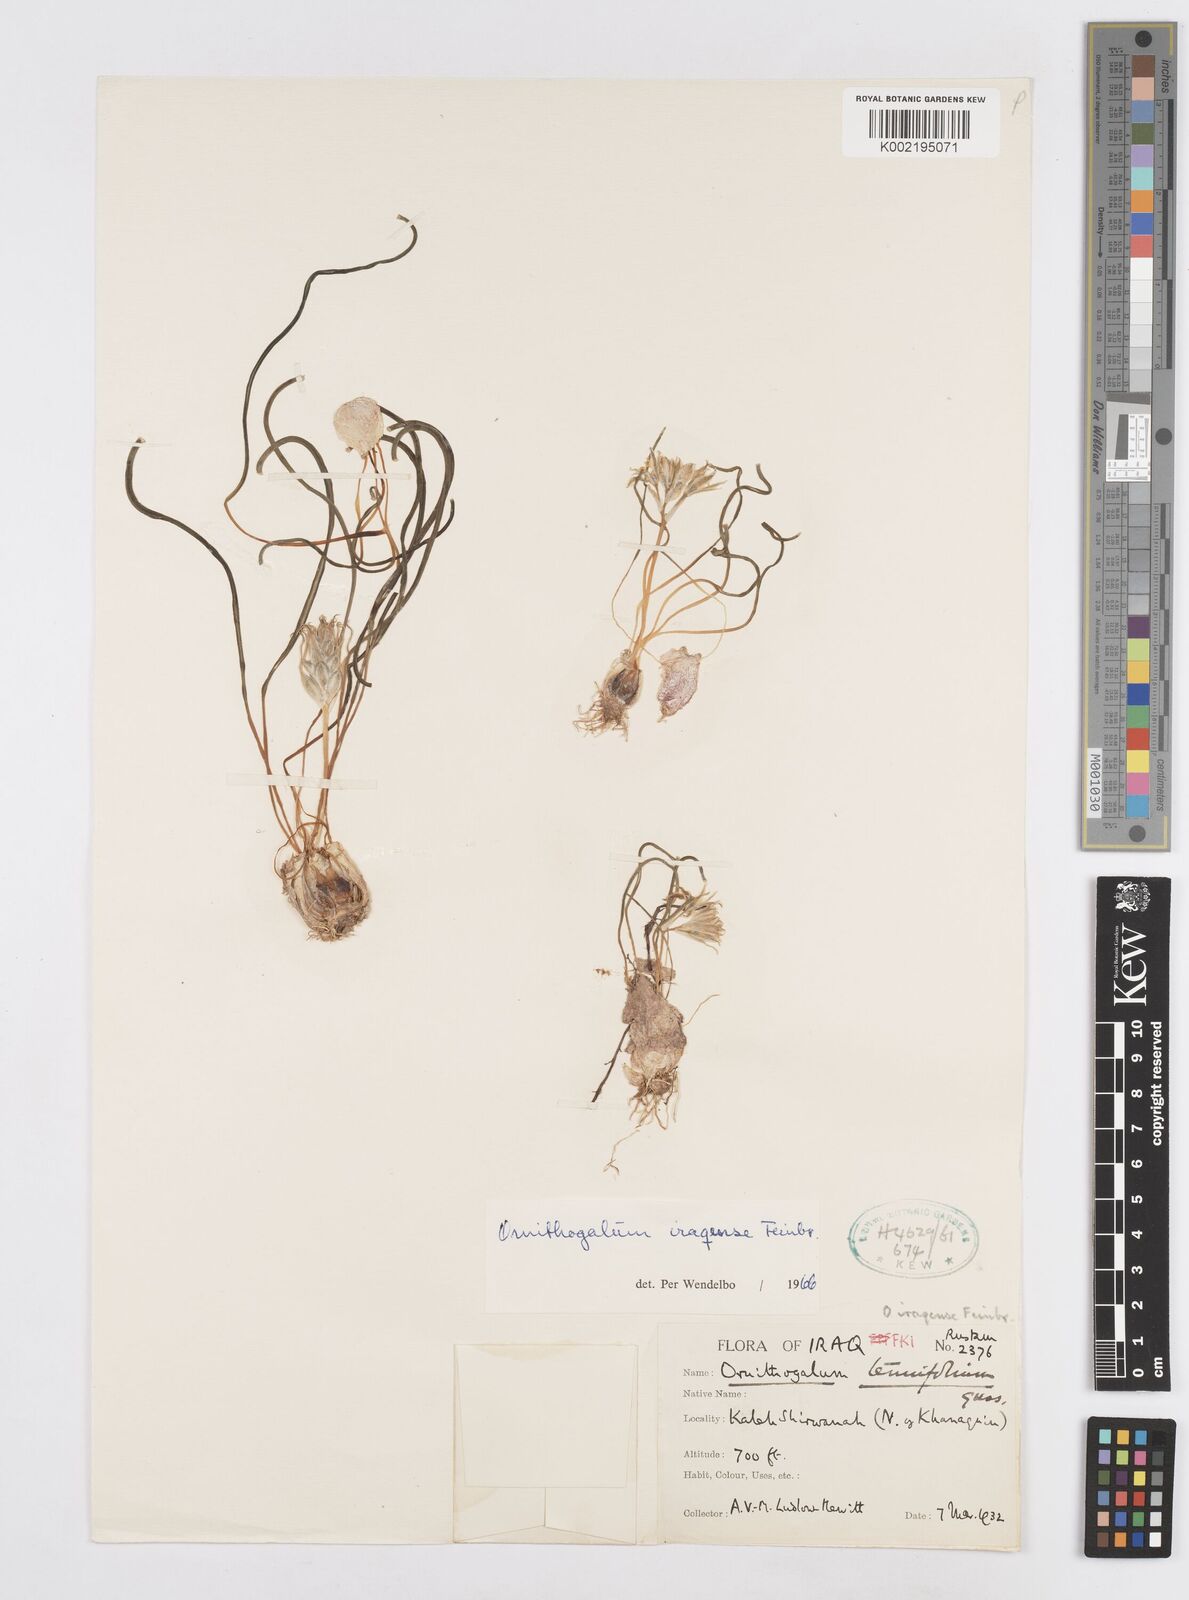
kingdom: Plantae
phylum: Tracheophyta
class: Liliopsida
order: Asparagales
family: Asparagaceae
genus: Ornithogalum
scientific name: Ornithogalum iraqense
